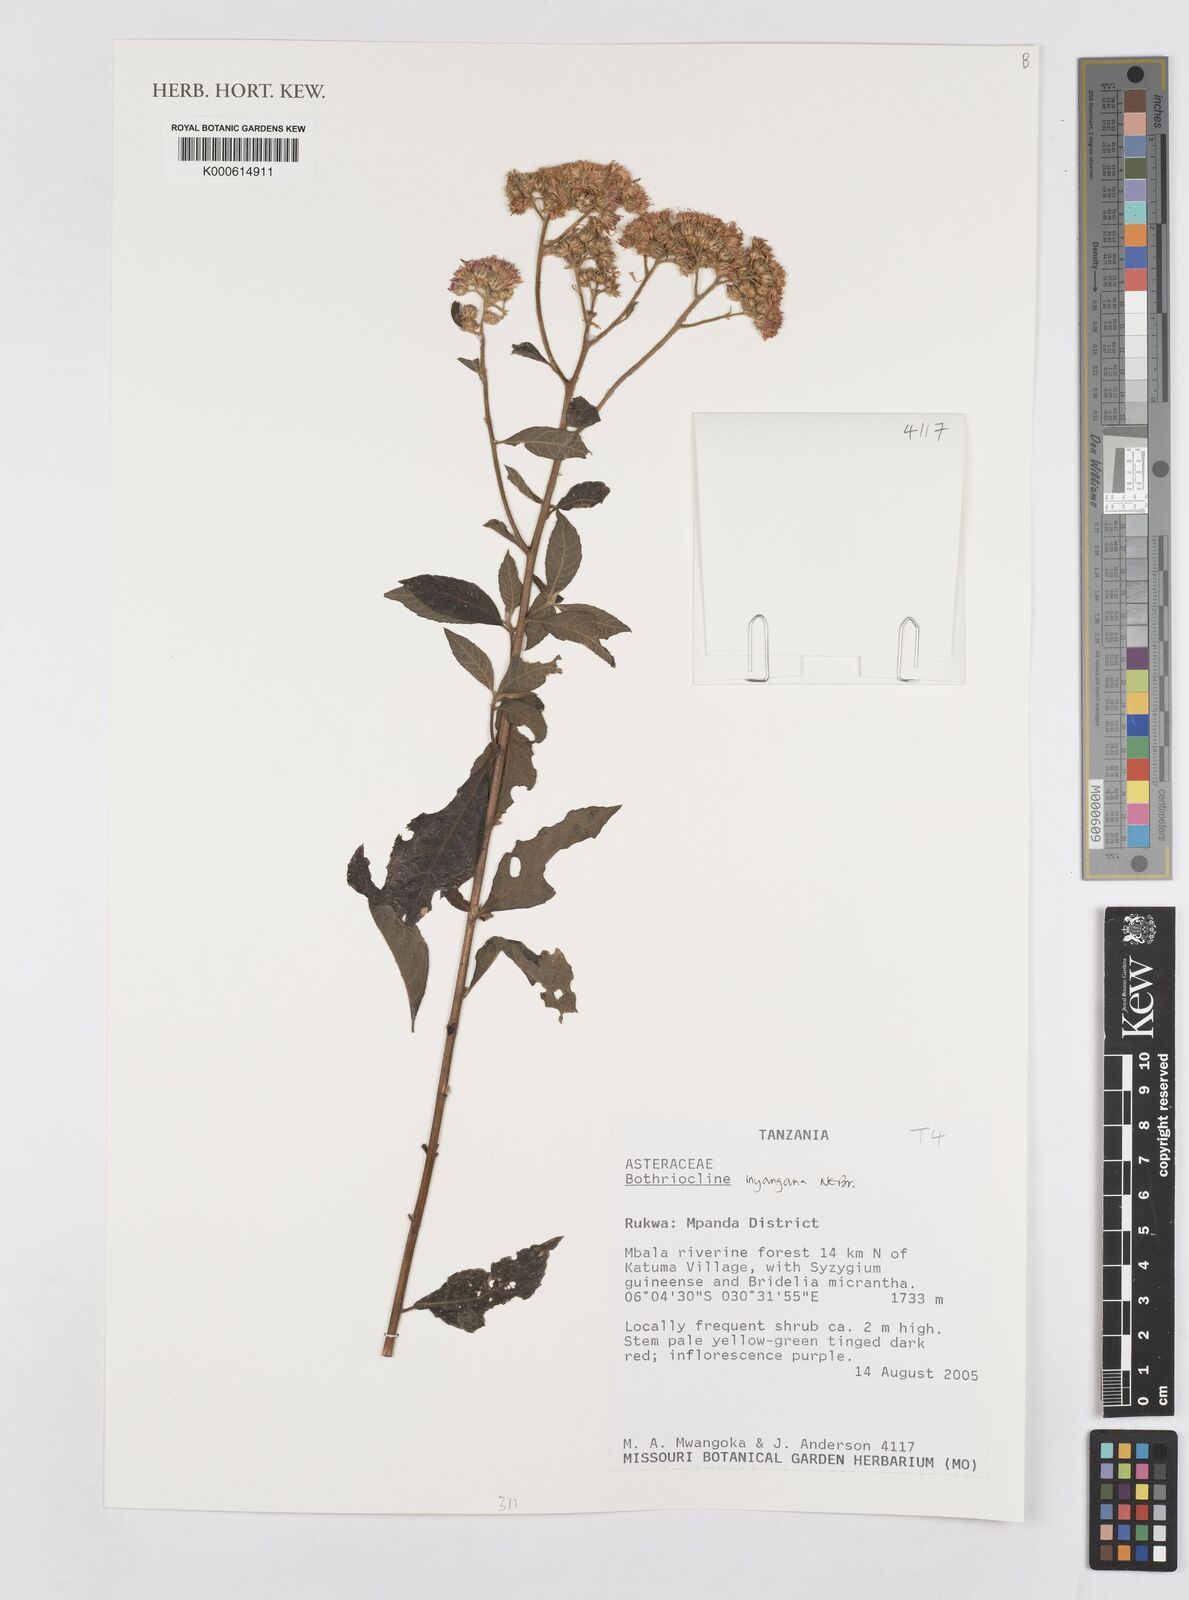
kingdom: Plantae
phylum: Tracheophyta
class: Magnoliopsida
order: Asterales
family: Asteraceae
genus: Bothriocline
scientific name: Bothriocline inyangana
